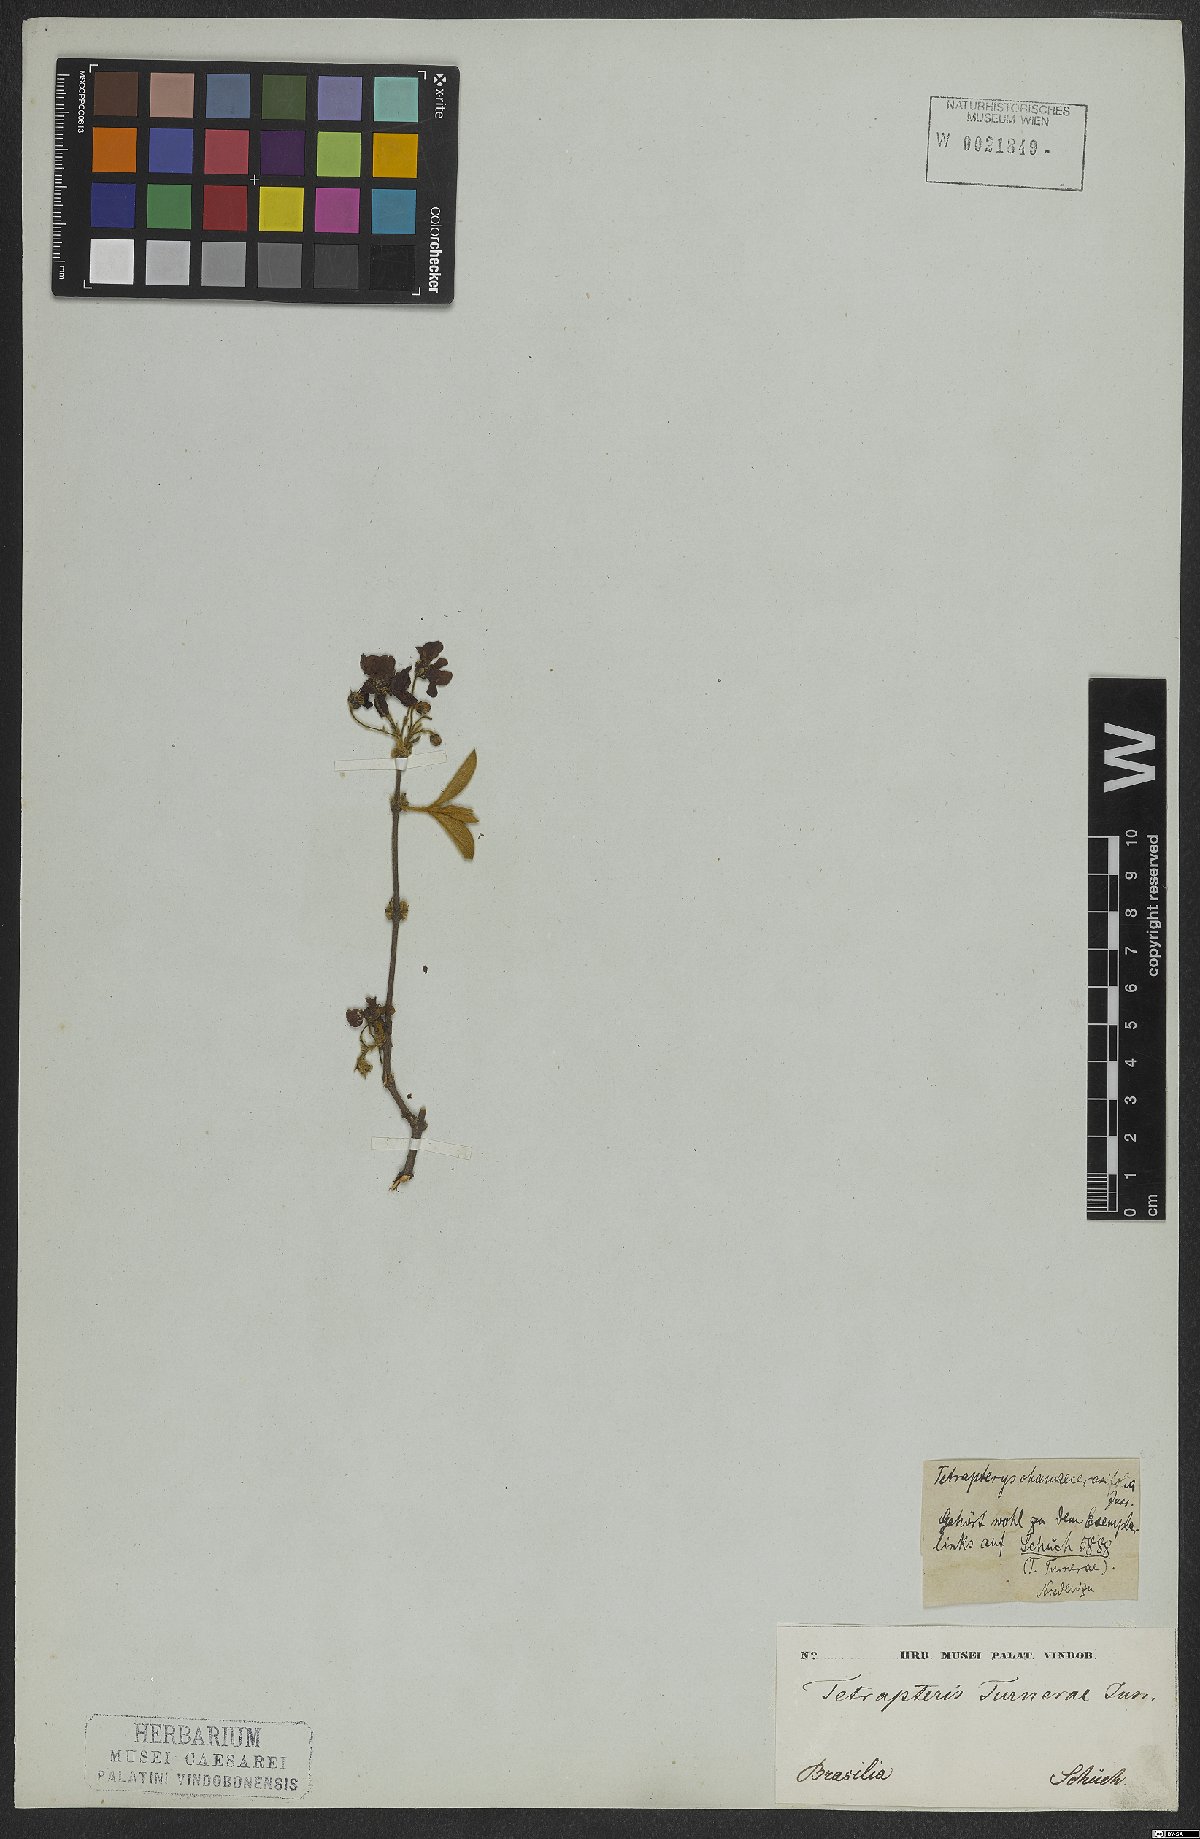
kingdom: Plantae
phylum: Tracheophyta
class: Magnoliopsida
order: Malpighiales
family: Malpighiaceae
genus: Glicophyllum
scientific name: Glicophyllum turnerae
